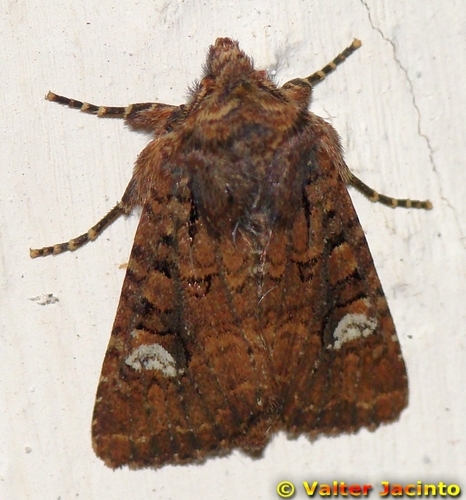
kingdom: Animalia
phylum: Arthropoda
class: Insecta
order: Lepidoptera
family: Noctuidae
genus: Dryobota
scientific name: Dryobota labecula
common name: Oak rustic
